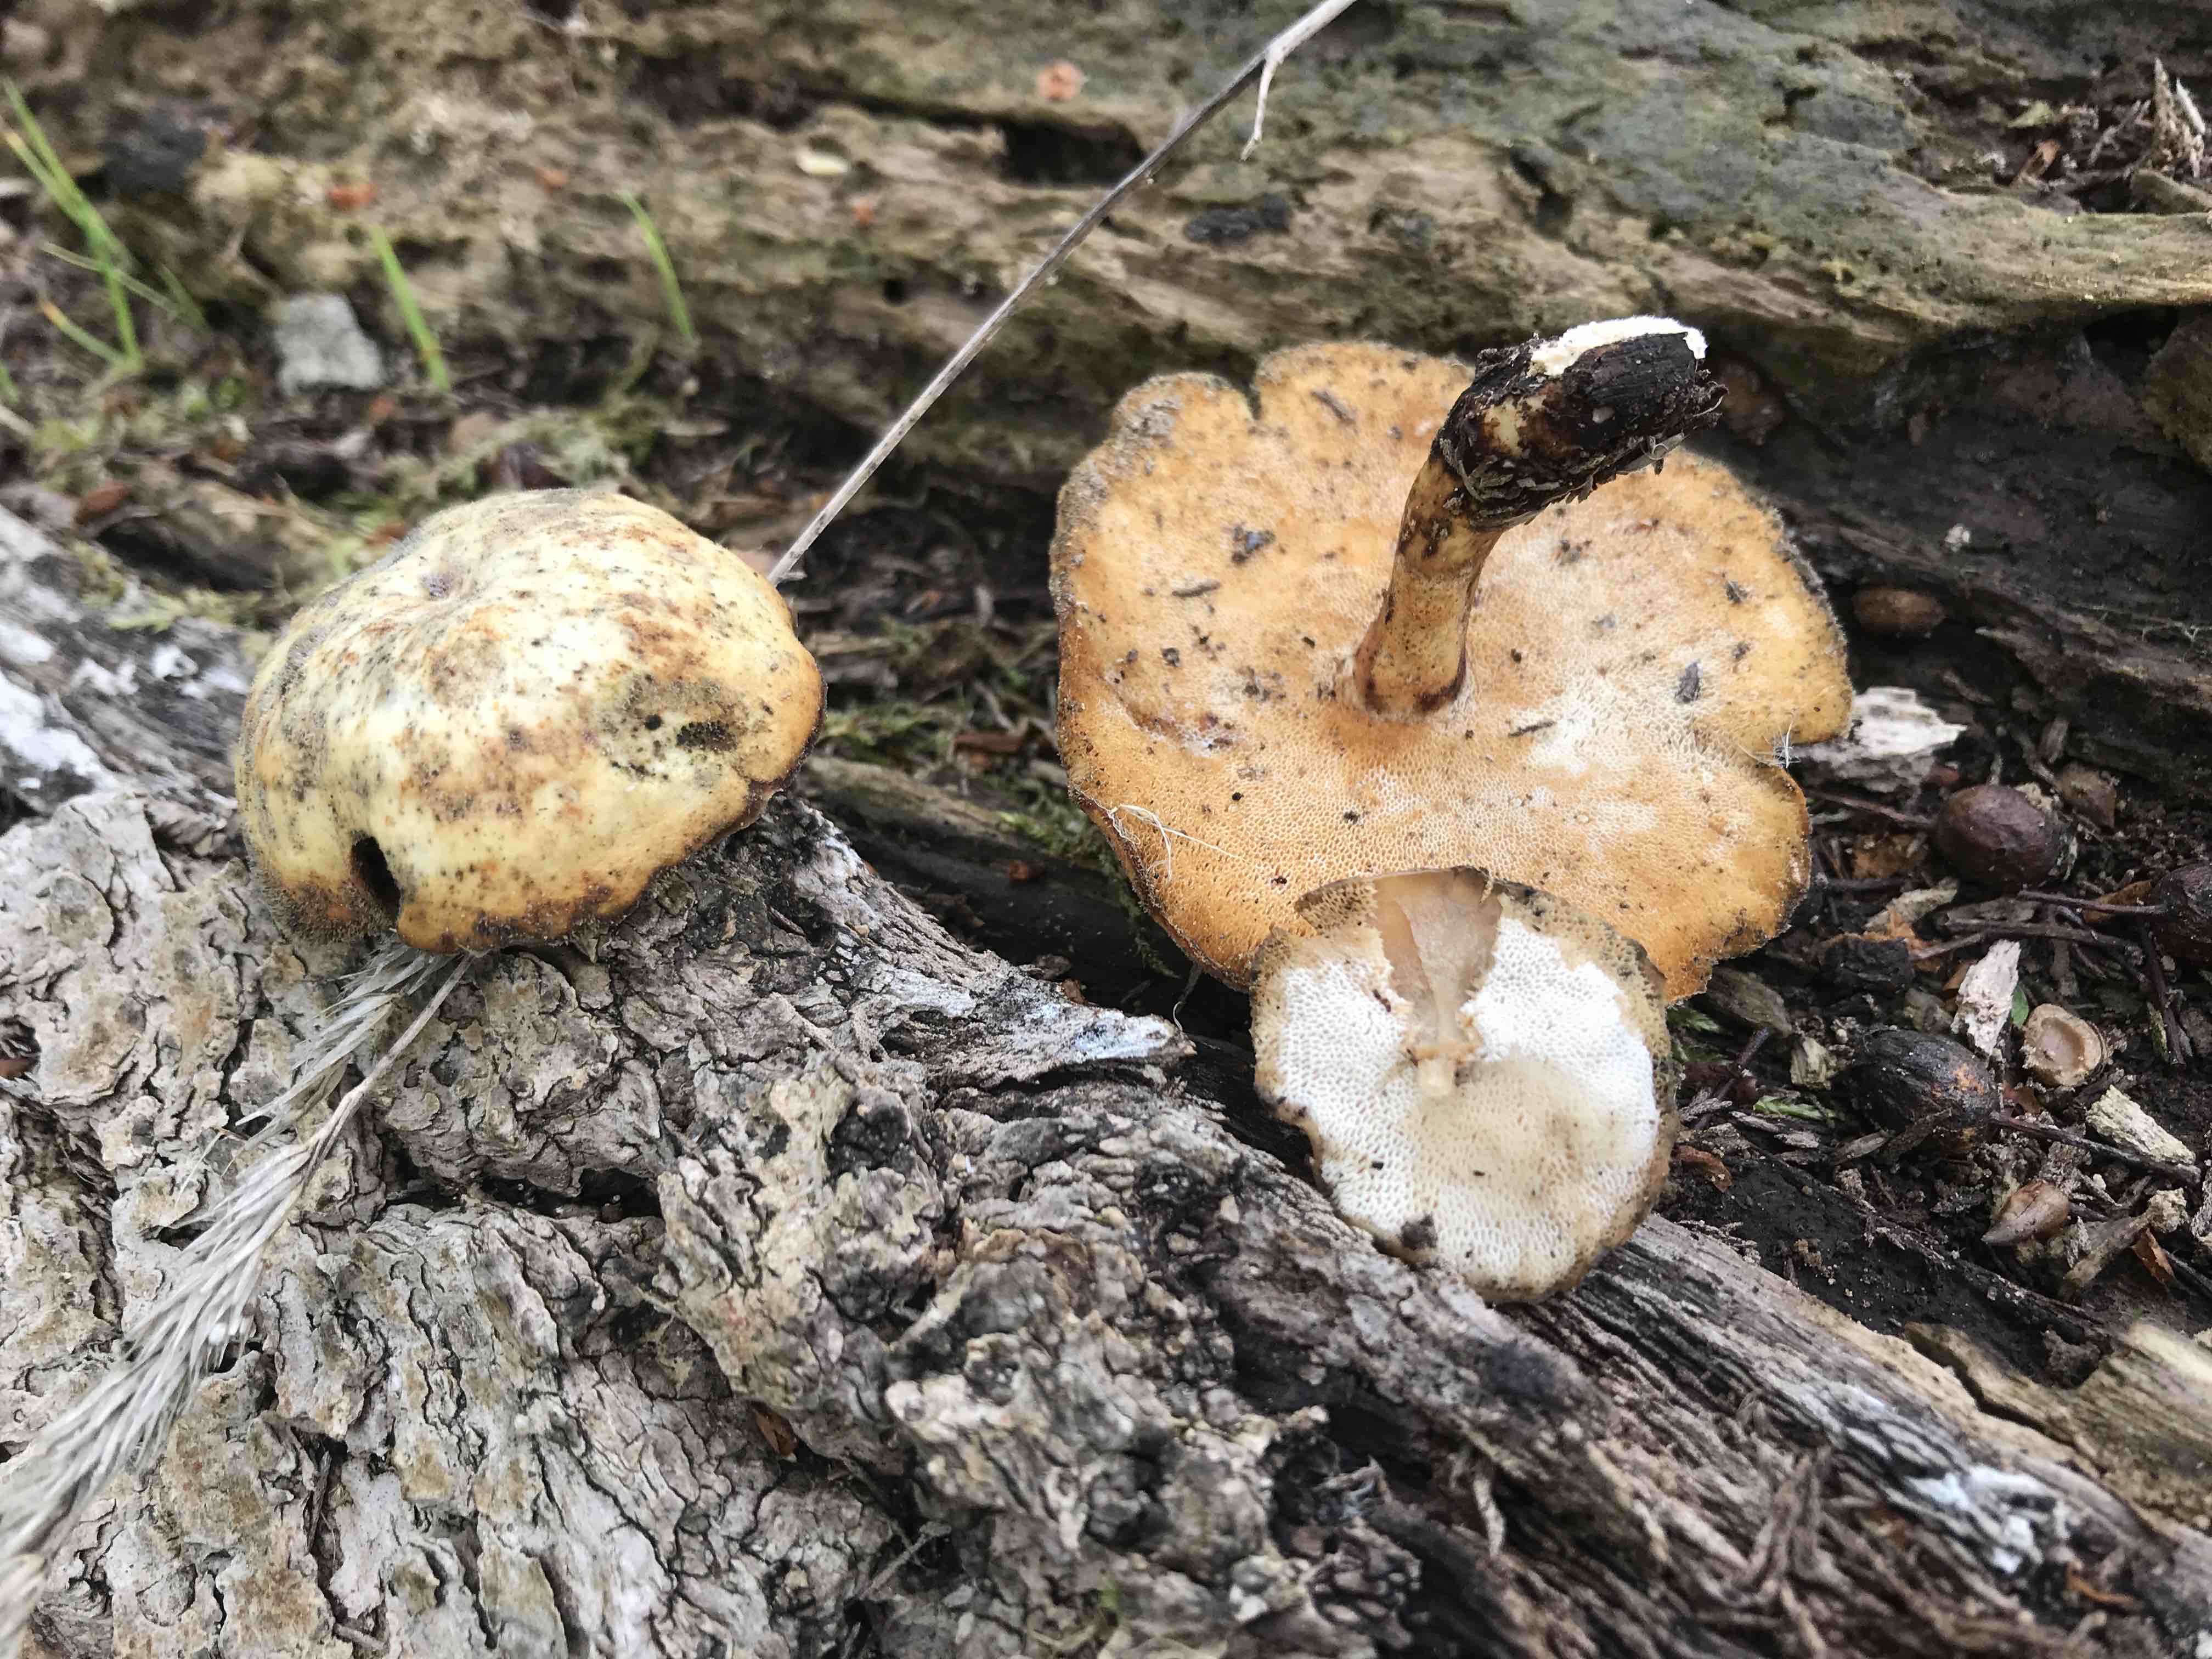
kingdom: Fungi
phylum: Basidiomycota
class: Agaricomycetes
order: Polyporales
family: Polyporaceae
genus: Cerioporus
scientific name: Cerioporus varius
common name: foranderlig stilkporesvamp
